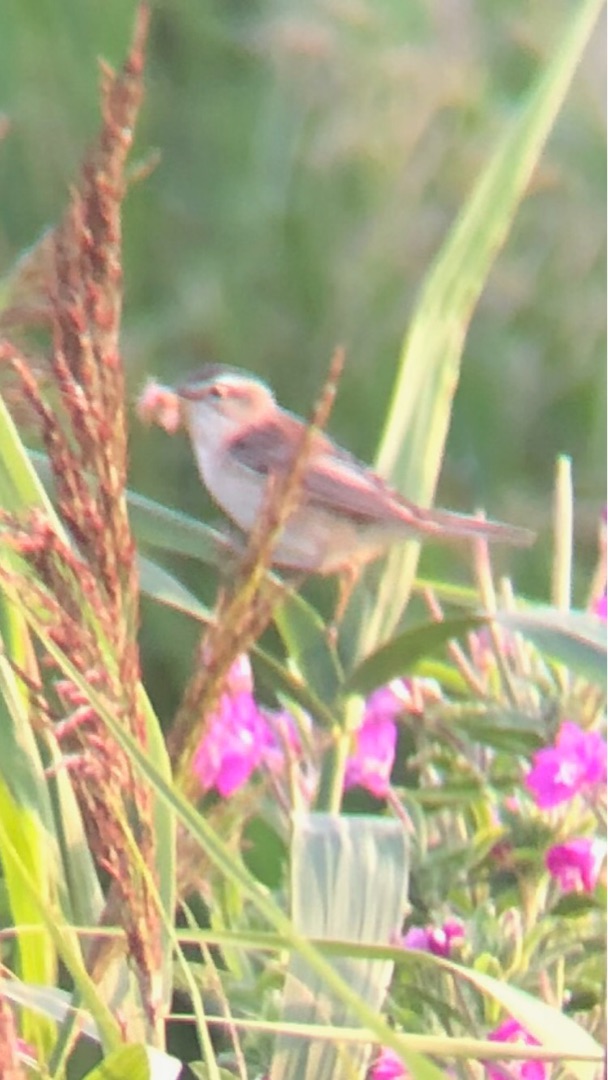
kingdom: Animalia
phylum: Chordata
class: Aves
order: Passeriformes
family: Acrocephalidae
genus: Acrocephalus
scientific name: Acrocephalus schoenobaenus
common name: Sivsanger
